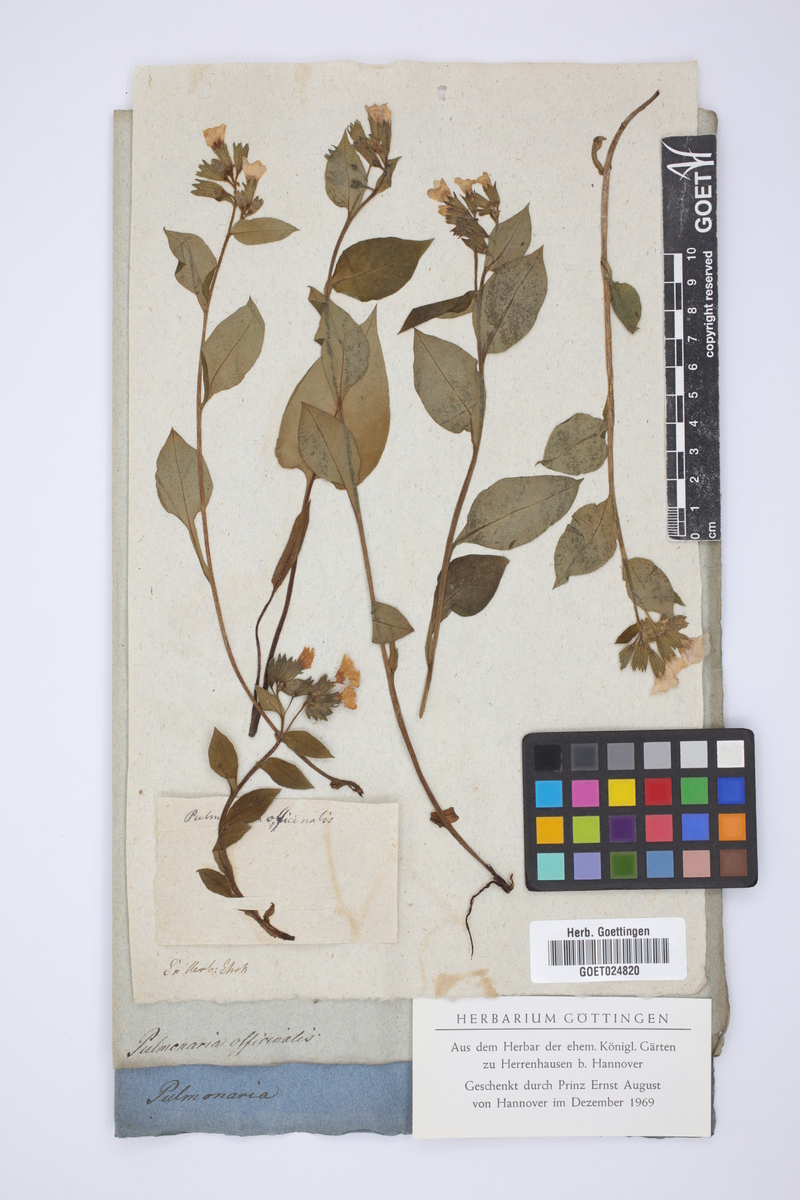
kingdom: Plantae
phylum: Tracheophyta
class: Magnoliopsida
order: Boraginales
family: Boraginaceae
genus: Pulmonaria
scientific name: Pulmonaria officinalis
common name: Lungwort
